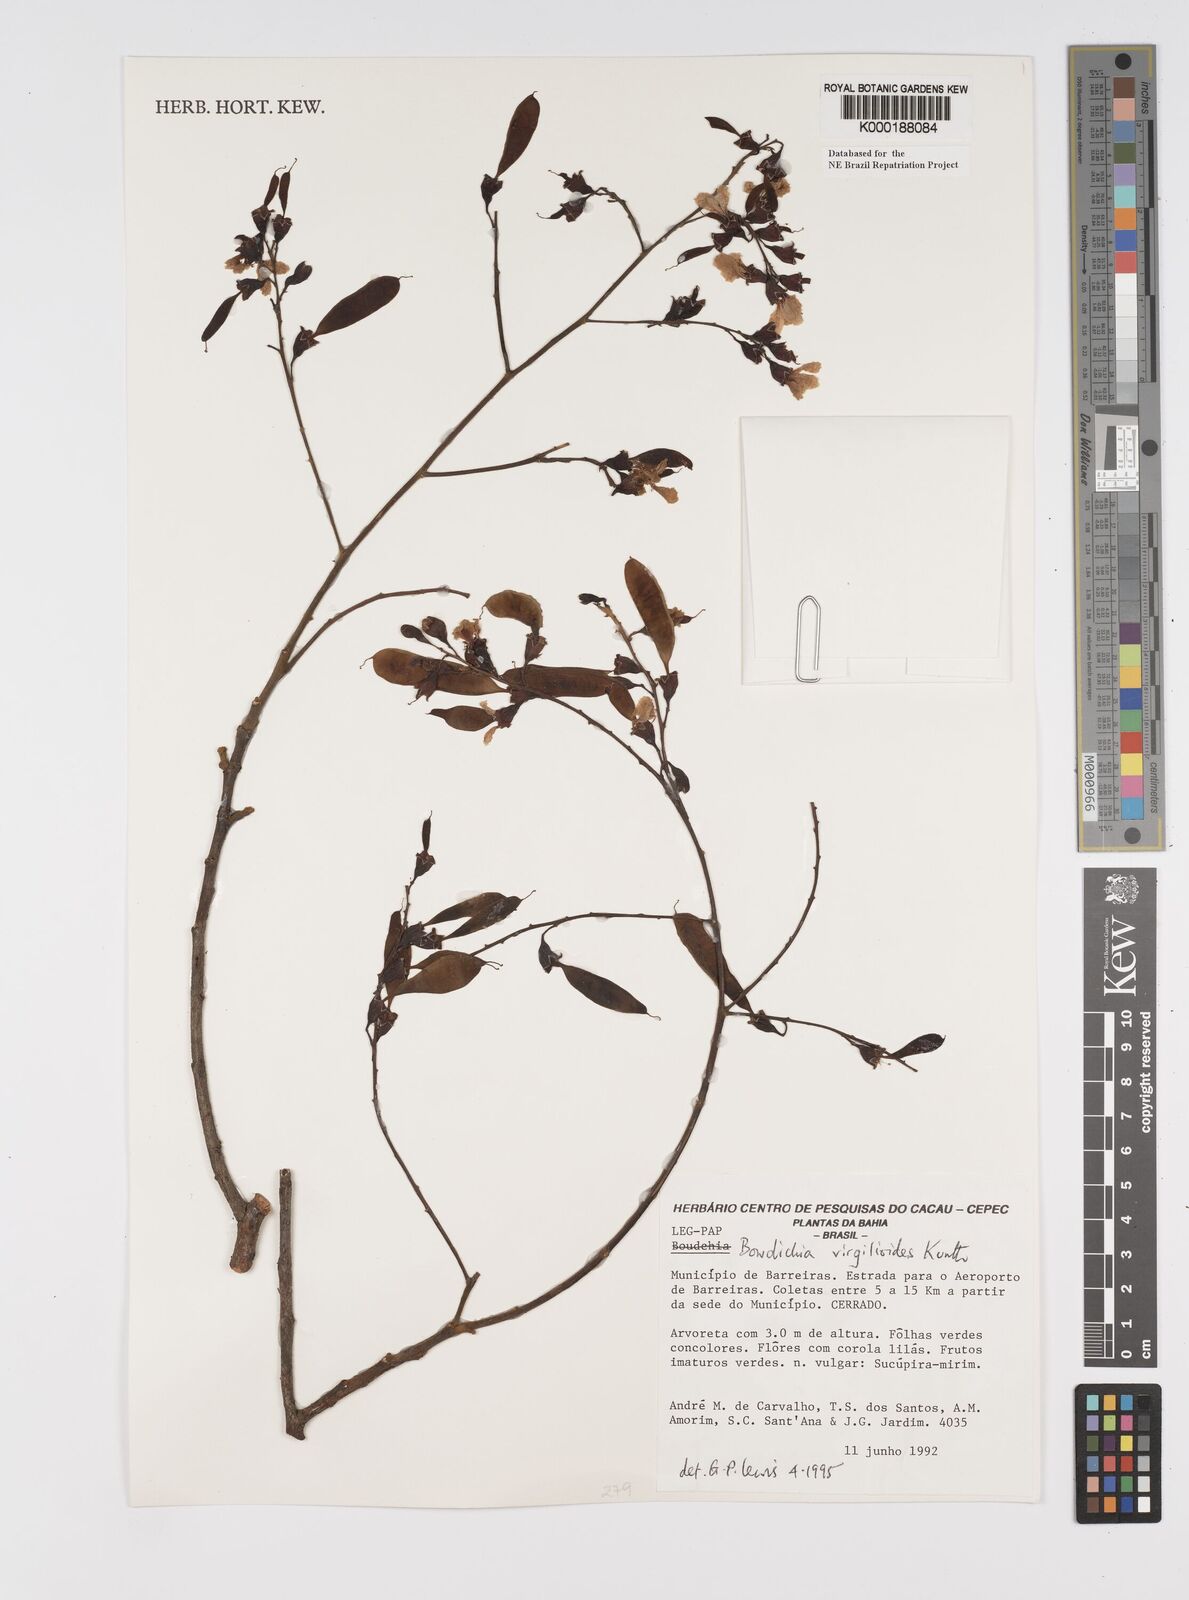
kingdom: Plantae
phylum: Tracheophyta
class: Magnoliopsida
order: Fabales
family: Fabaceae
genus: Bowdichia
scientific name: Bowdichia virgilioides
